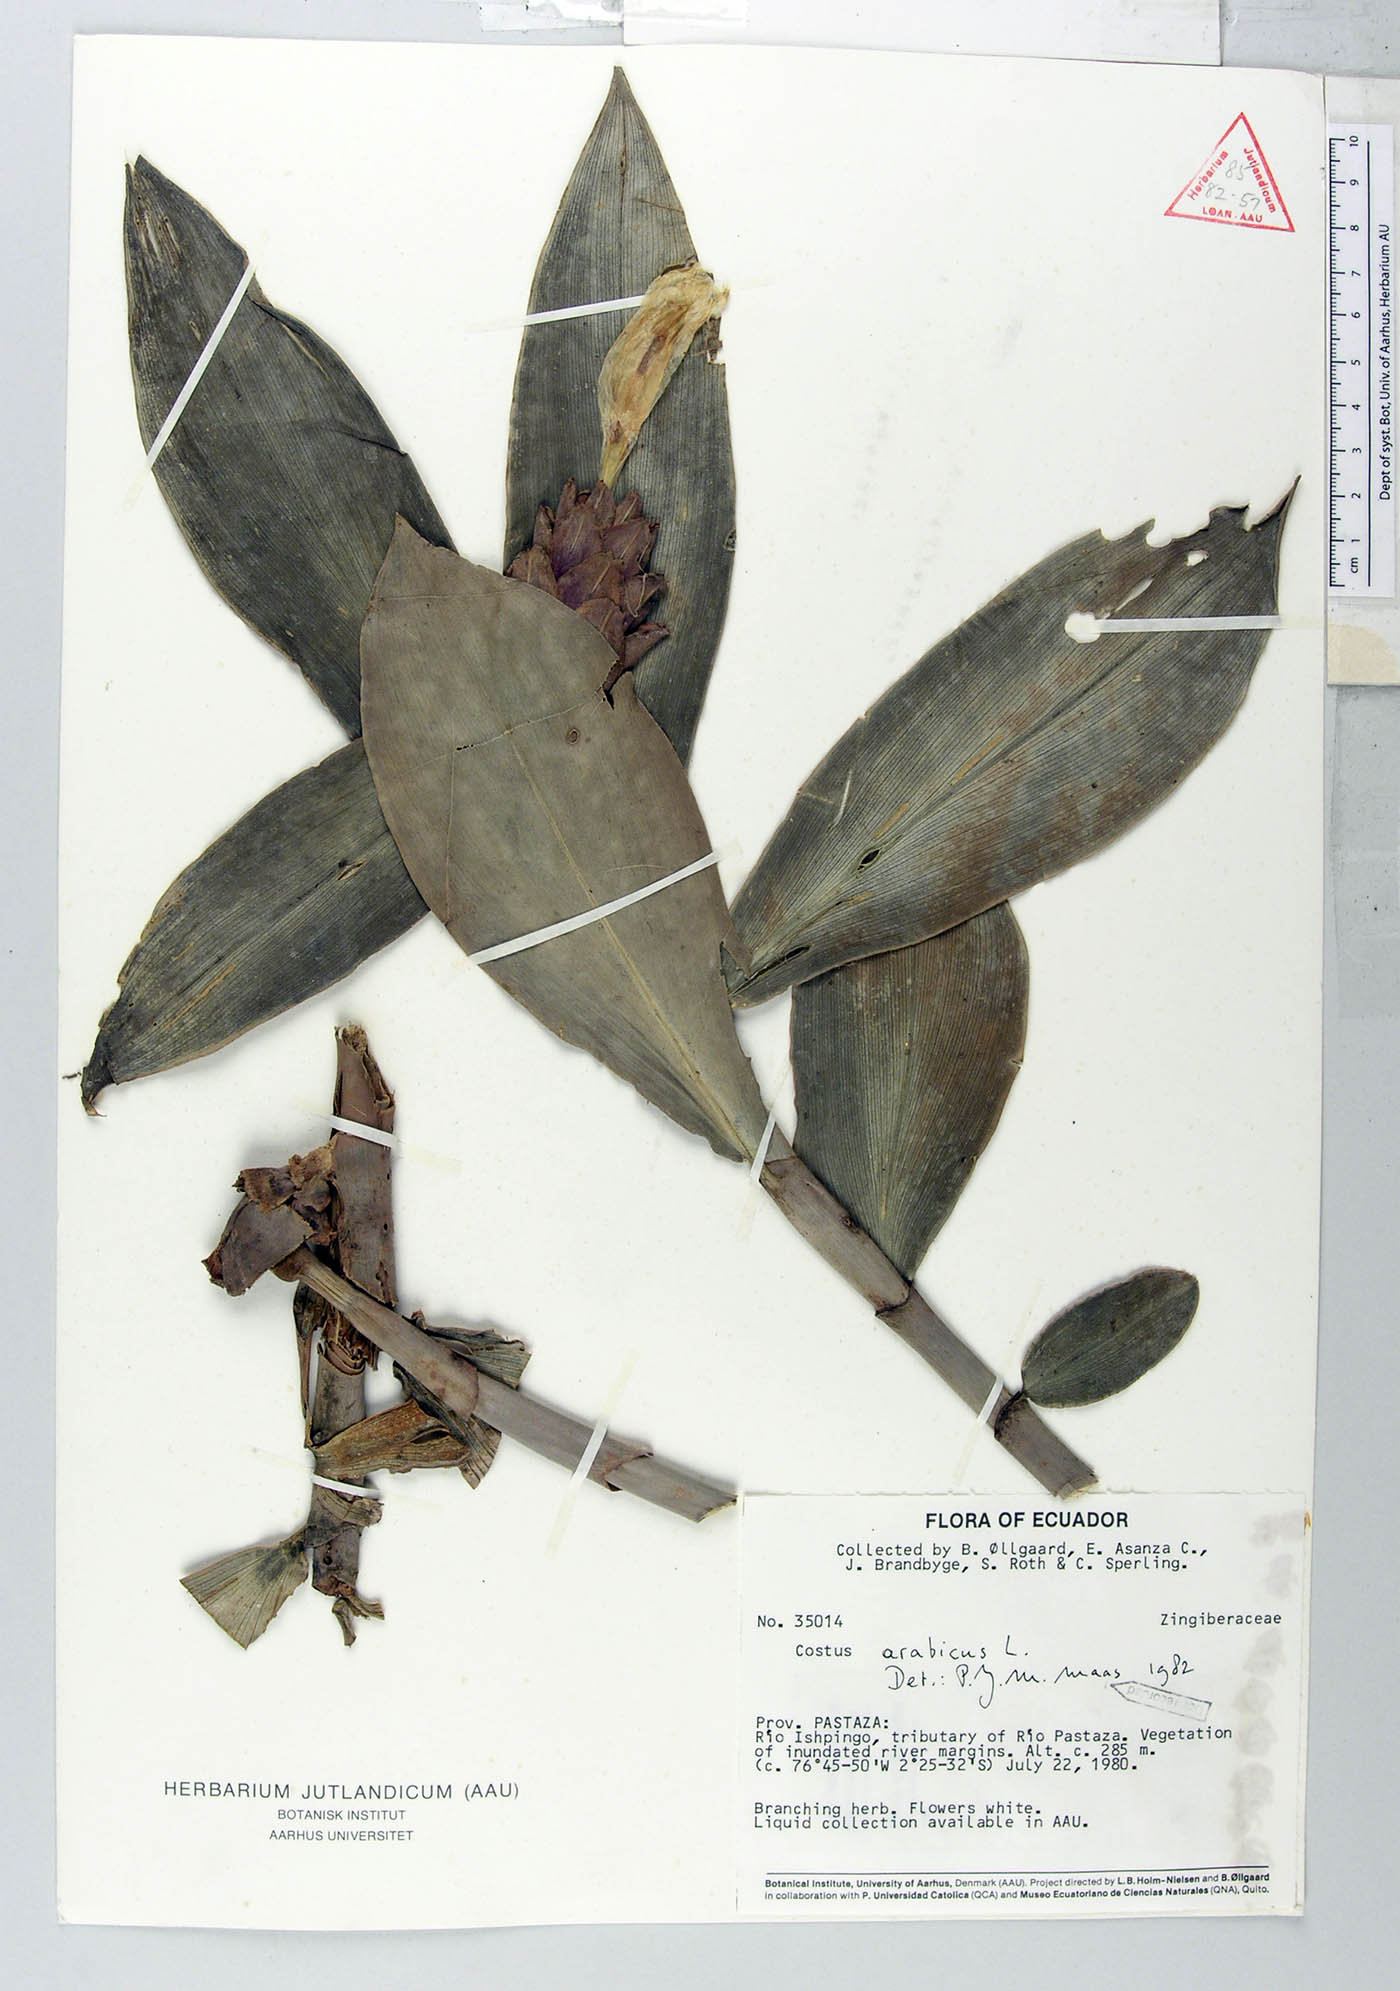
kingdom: Plantae
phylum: Tracheophyta
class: Liliopsida
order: Zingiberales
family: Costaceae
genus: Costus
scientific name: Costus arabicus
